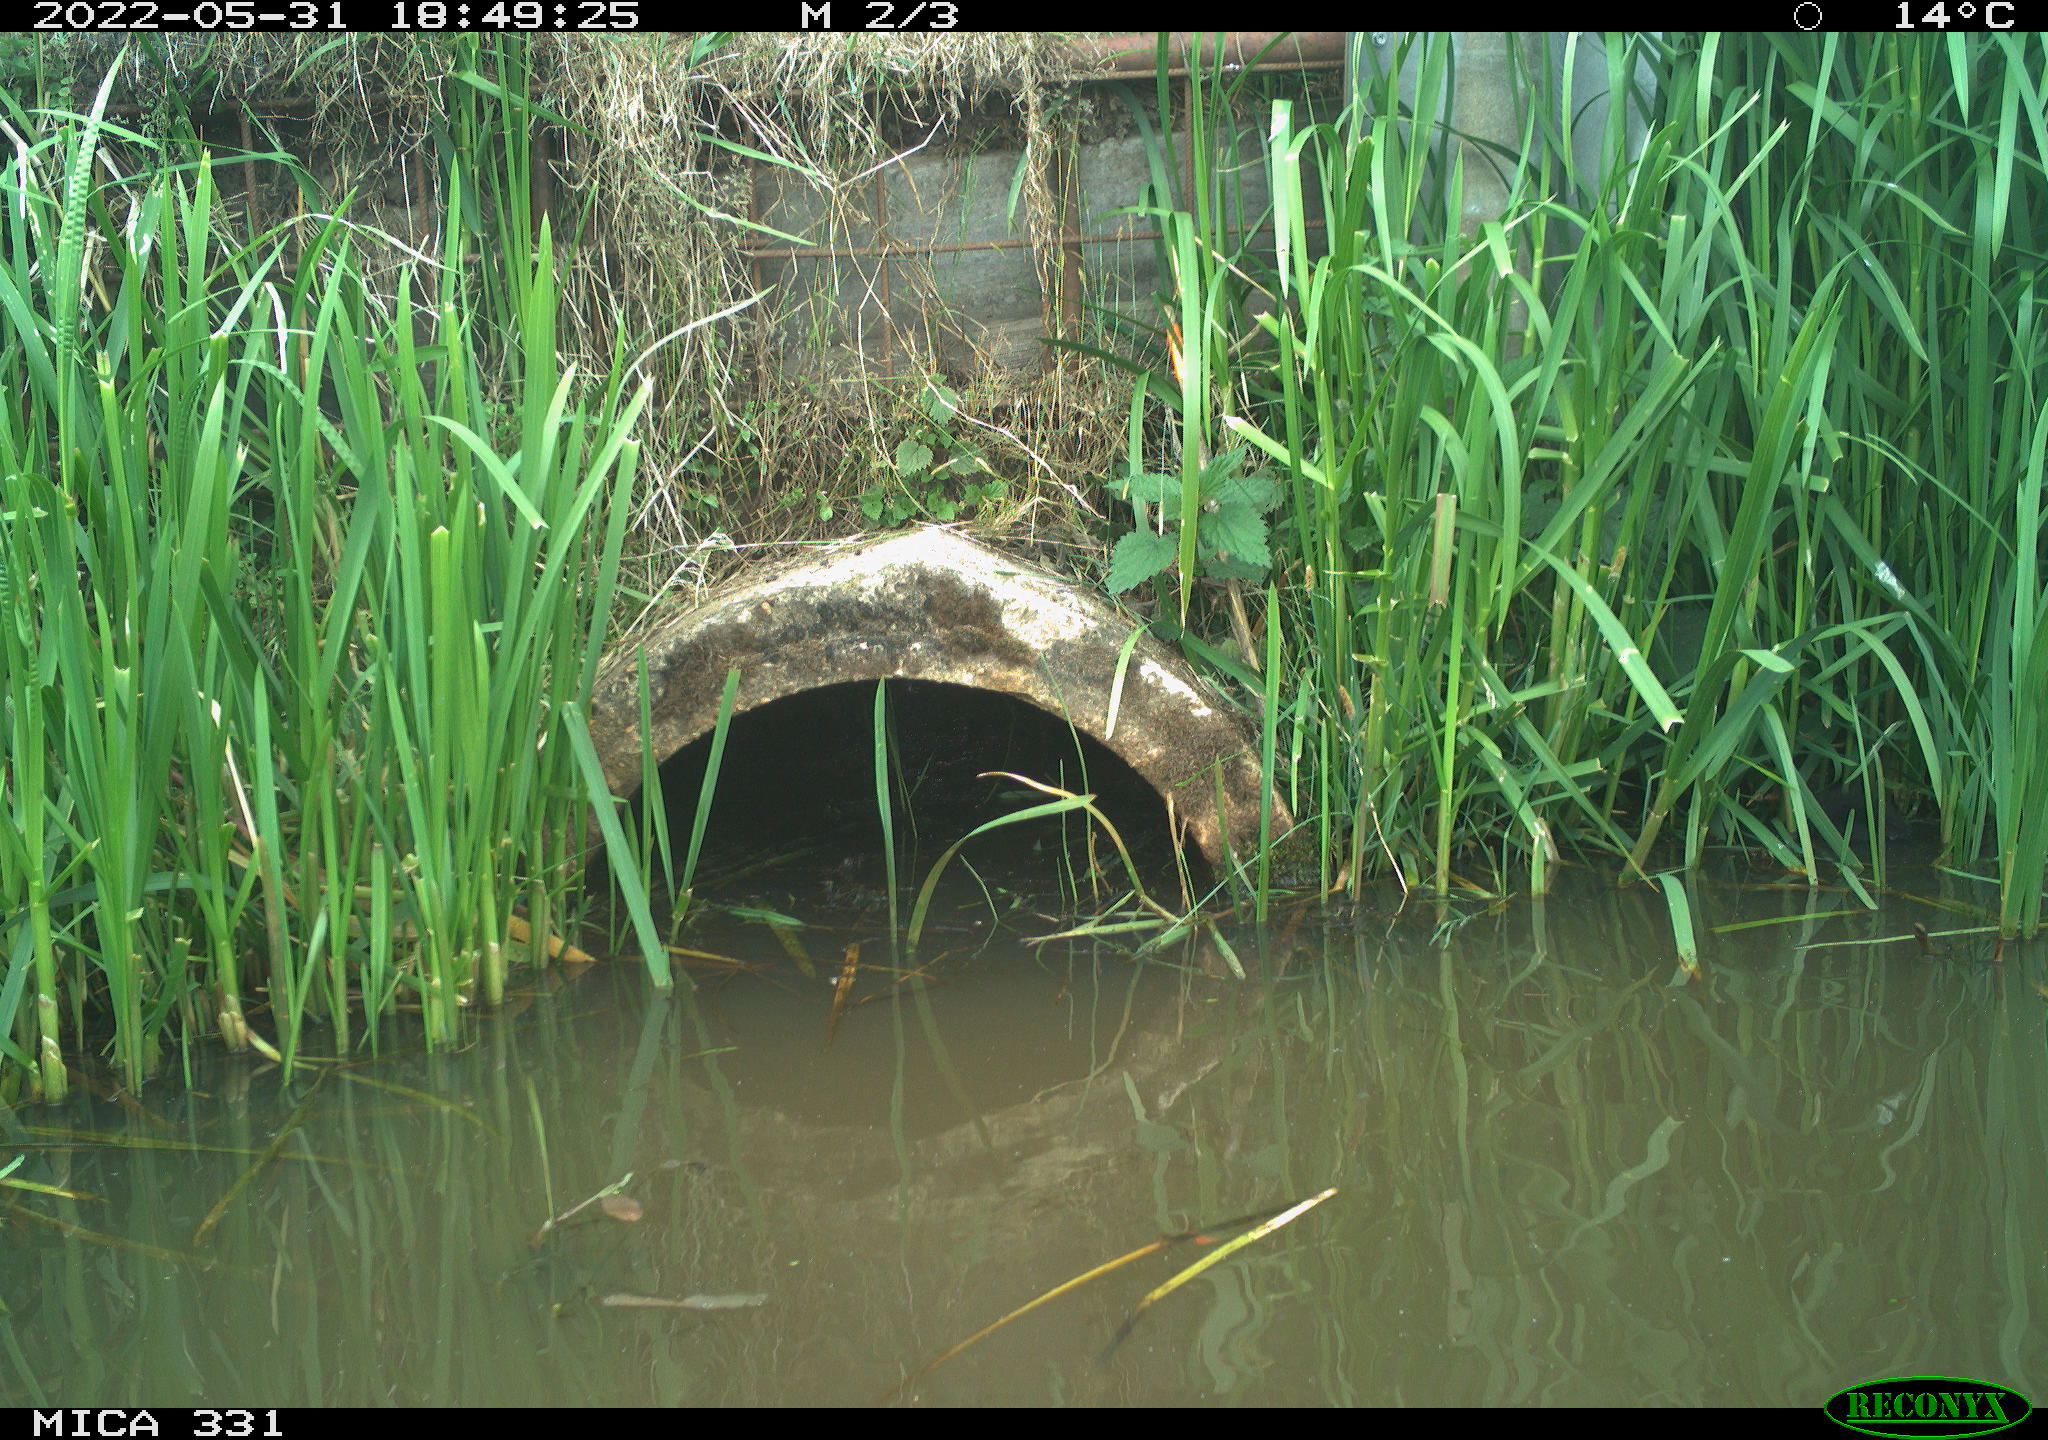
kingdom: Animalia
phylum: Chordata
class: Aves
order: Gruiformes
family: Rallidae
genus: Fulica
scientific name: Fulica atra
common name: Eurasian coot
